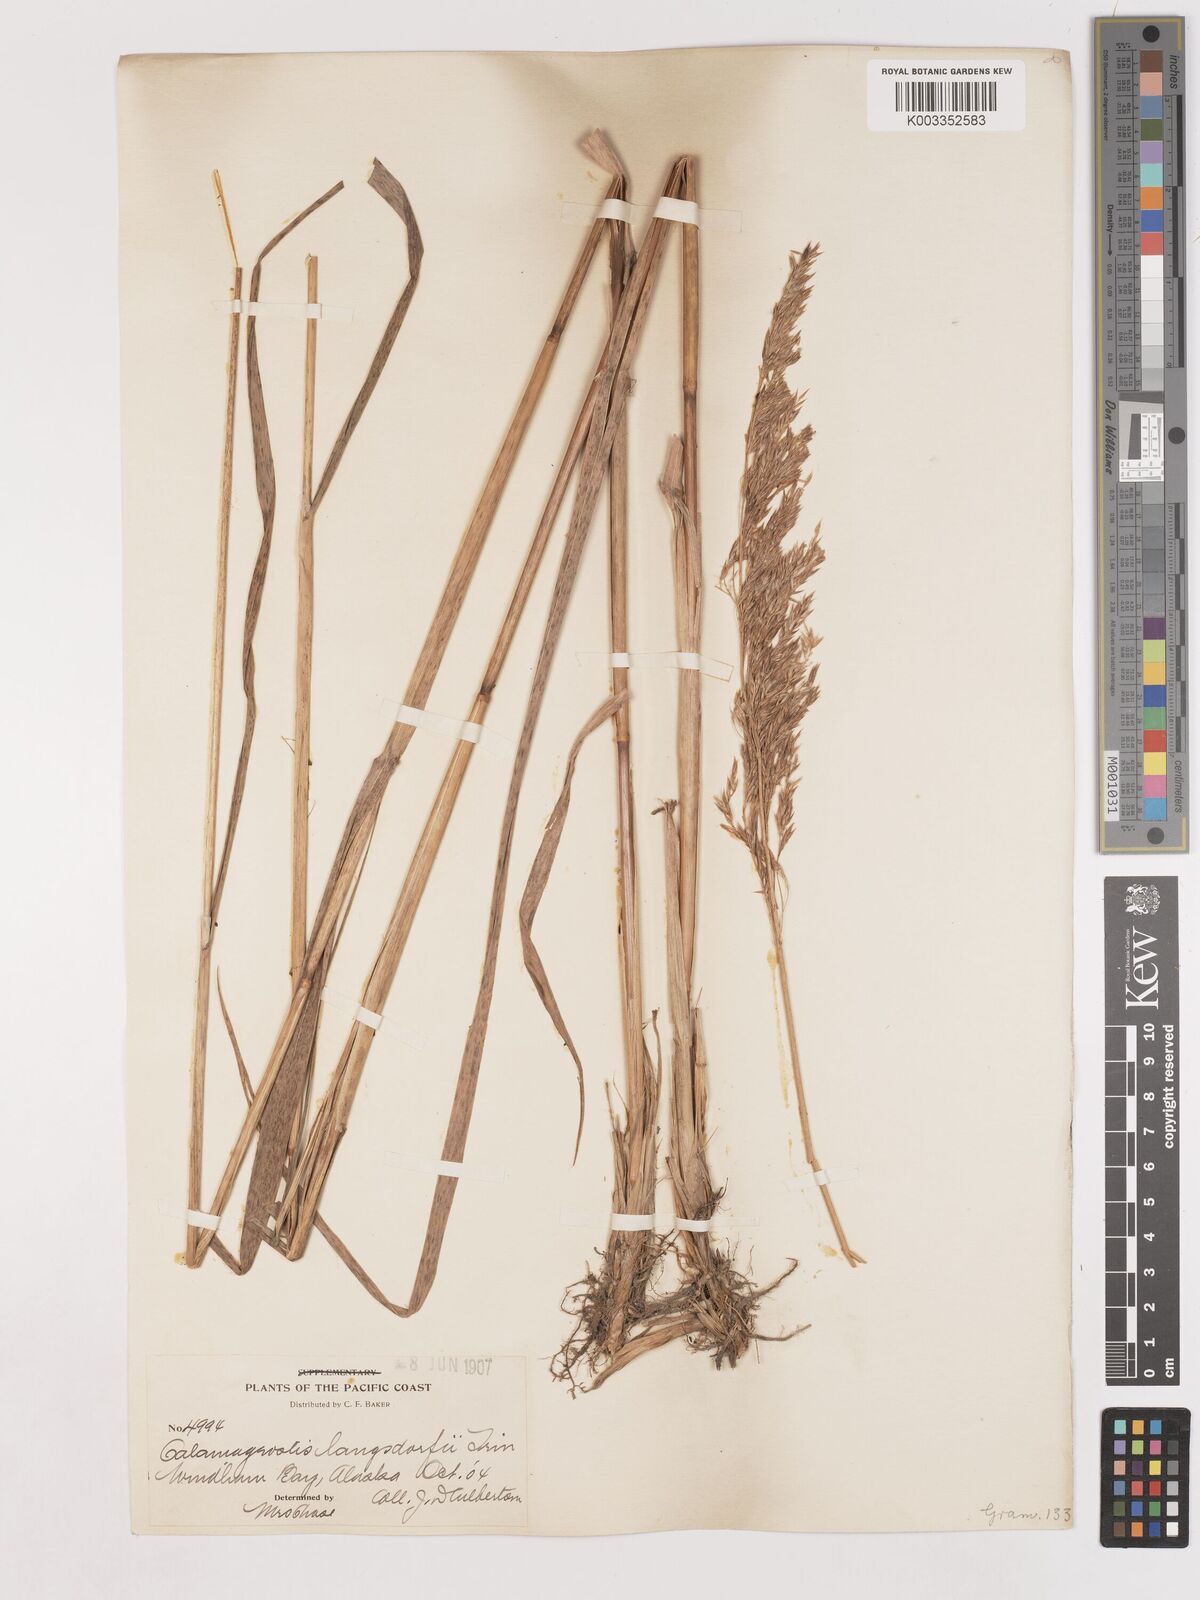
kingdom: Plantae
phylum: Tracheophyta
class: Liliopsida
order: Poales
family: Poaceae
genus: Calamagrostis
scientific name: Calamagrostis canadensis
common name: Canada bluejoint
